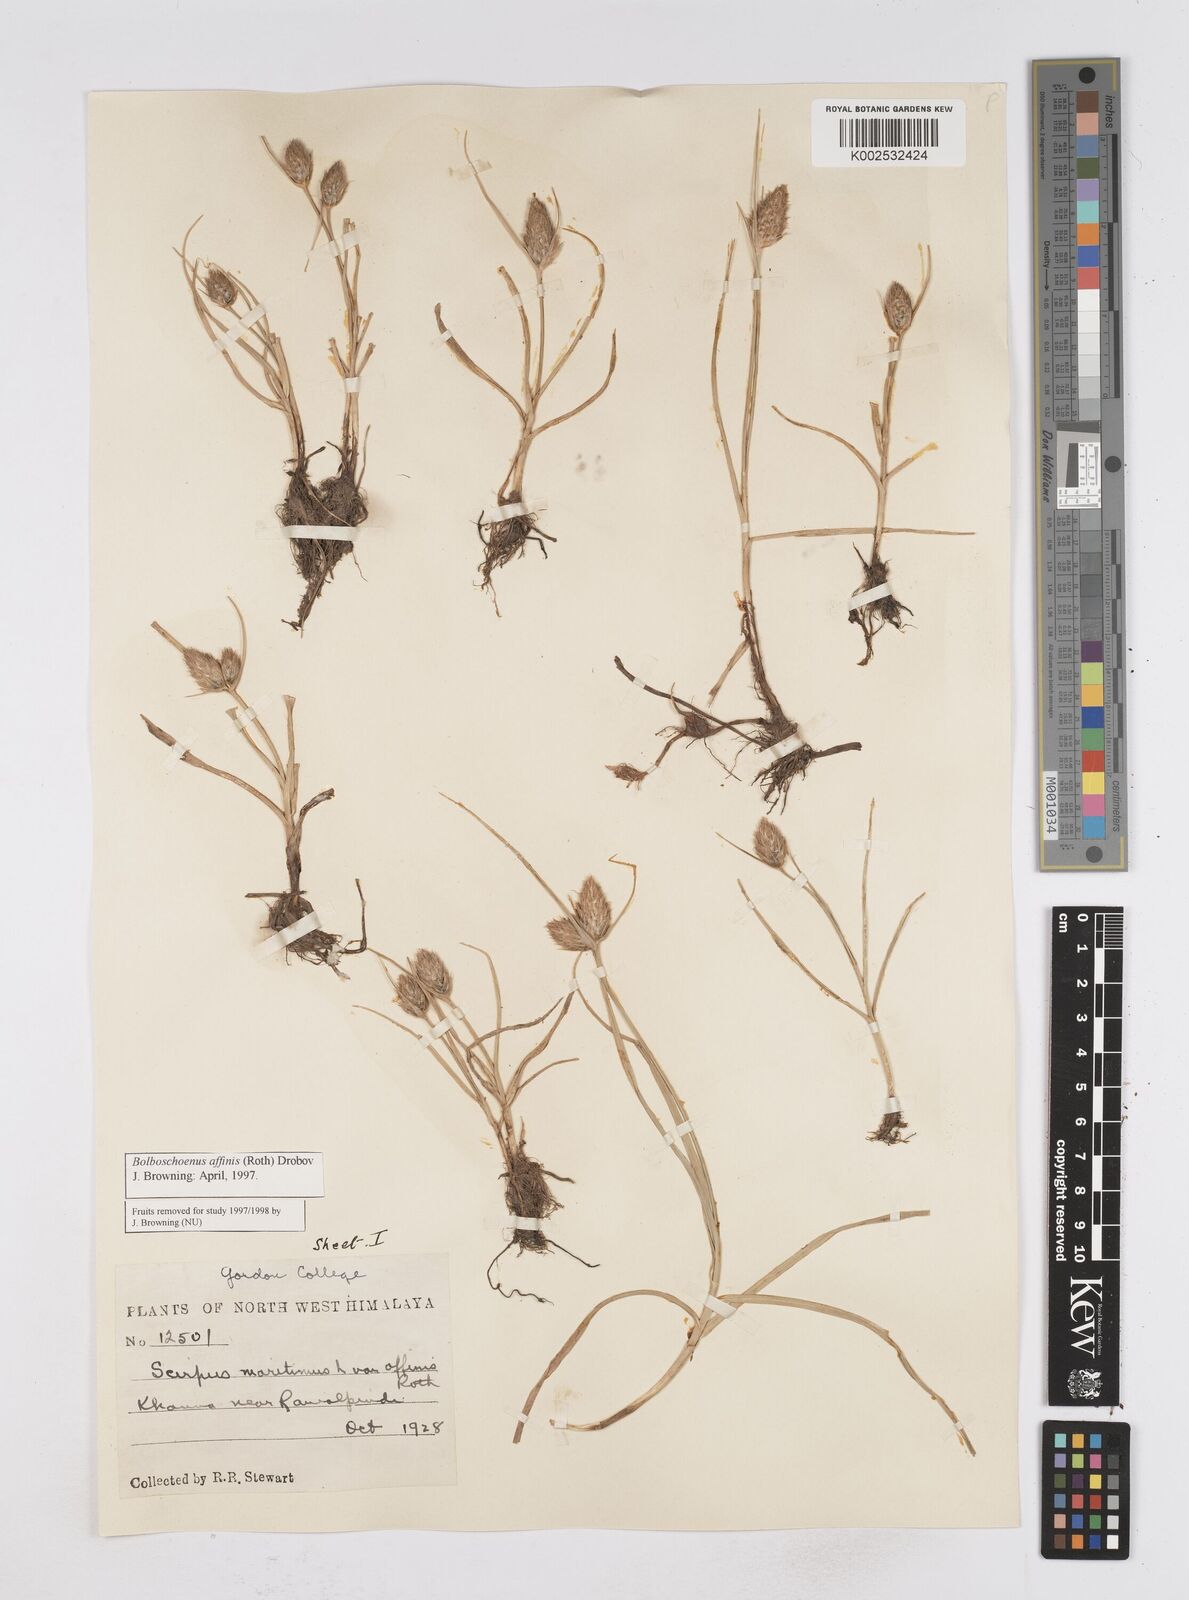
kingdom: Plantae
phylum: Tracheophyta
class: Liliopsida
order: Poales
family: Cyperaceae
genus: Bolboschoenus
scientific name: Bolboschoenus maritimus
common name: Sea club-rush
